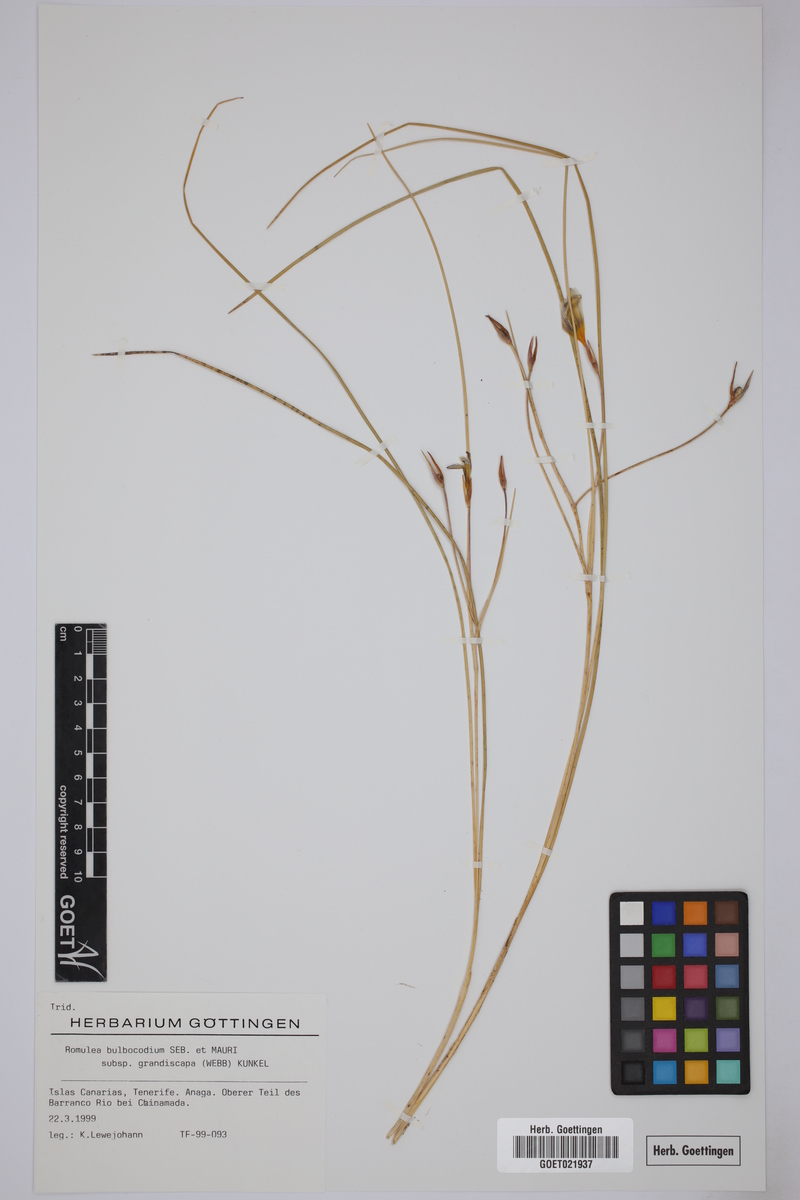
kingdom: Plantae
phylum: Tracheophyta
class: Liliopsida
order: Asparagales
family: Iridaceae
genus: Romulea
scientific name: Romulea bulbocodium
